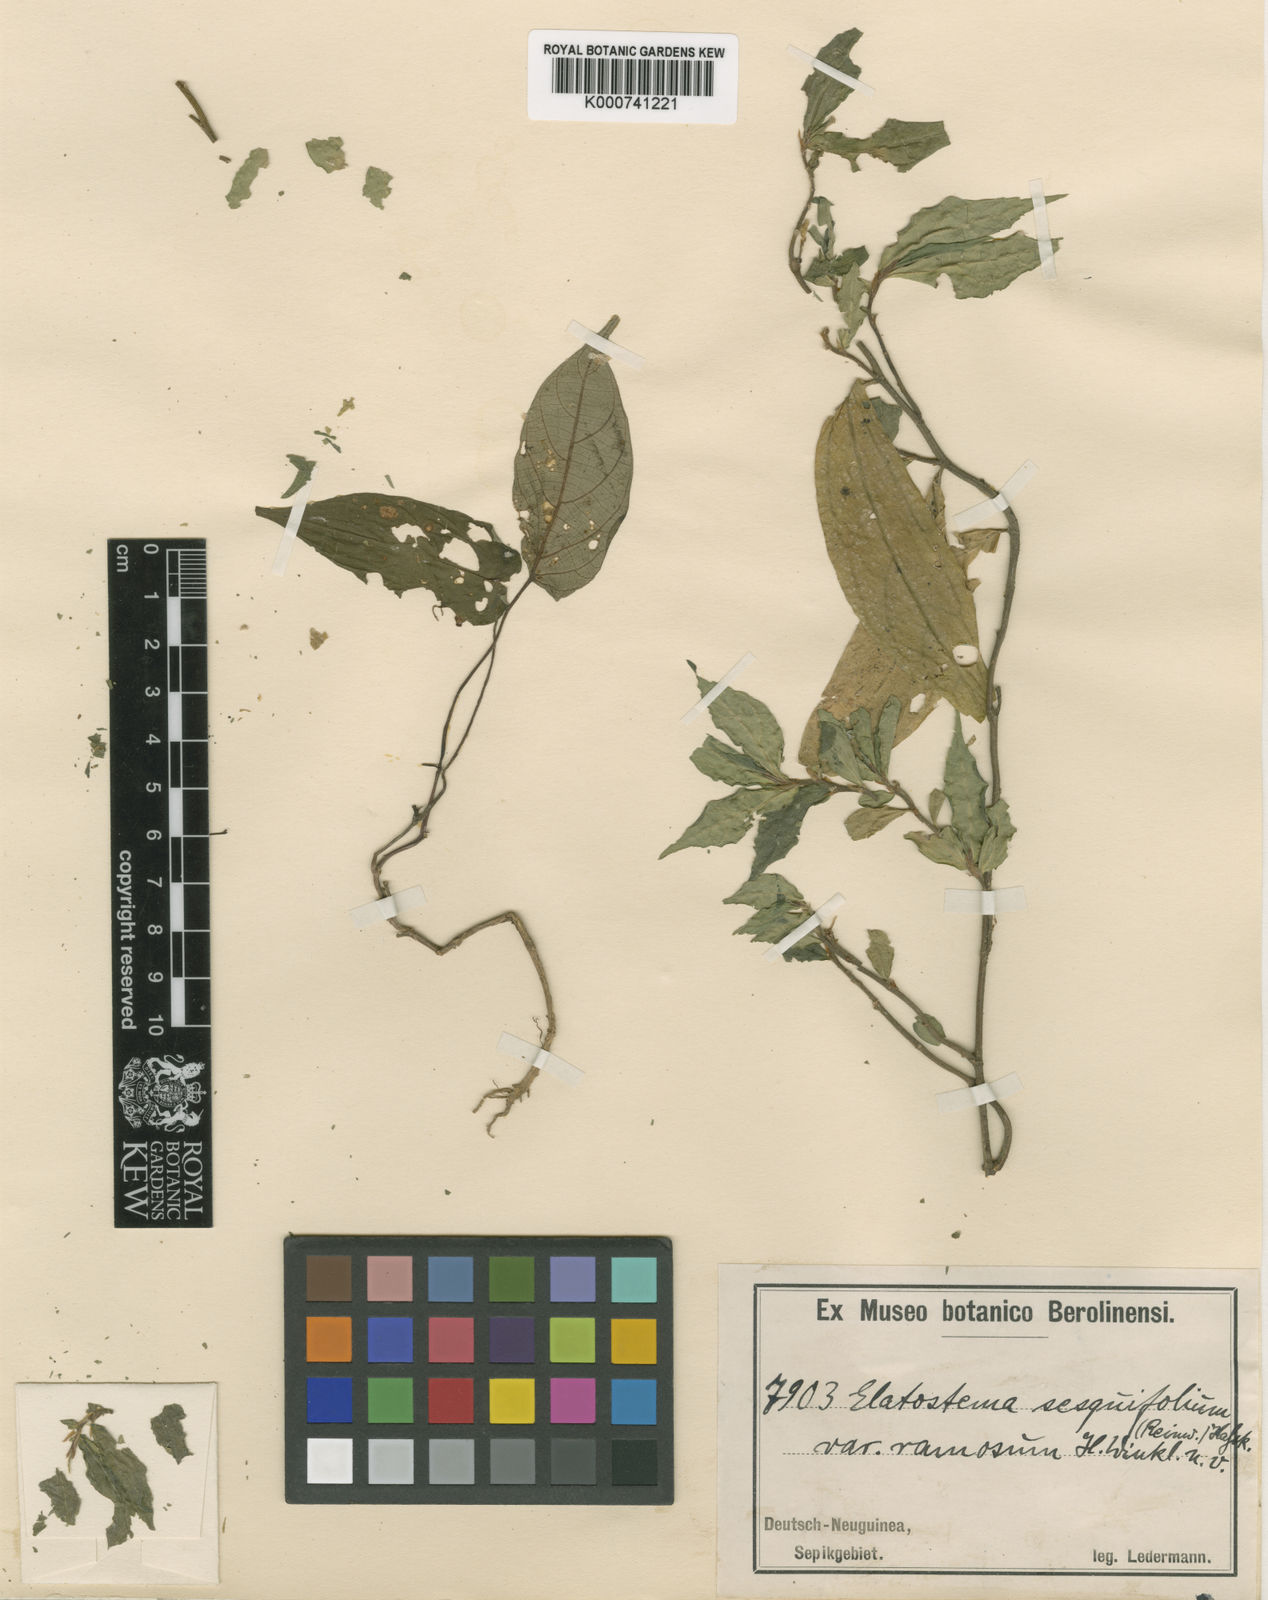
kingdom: Plantae
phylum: Tracheophyta
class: Magnoliopsida
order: Rosales
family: Urticaceae
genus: Elatostema
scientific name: Elatostema integrifolium
